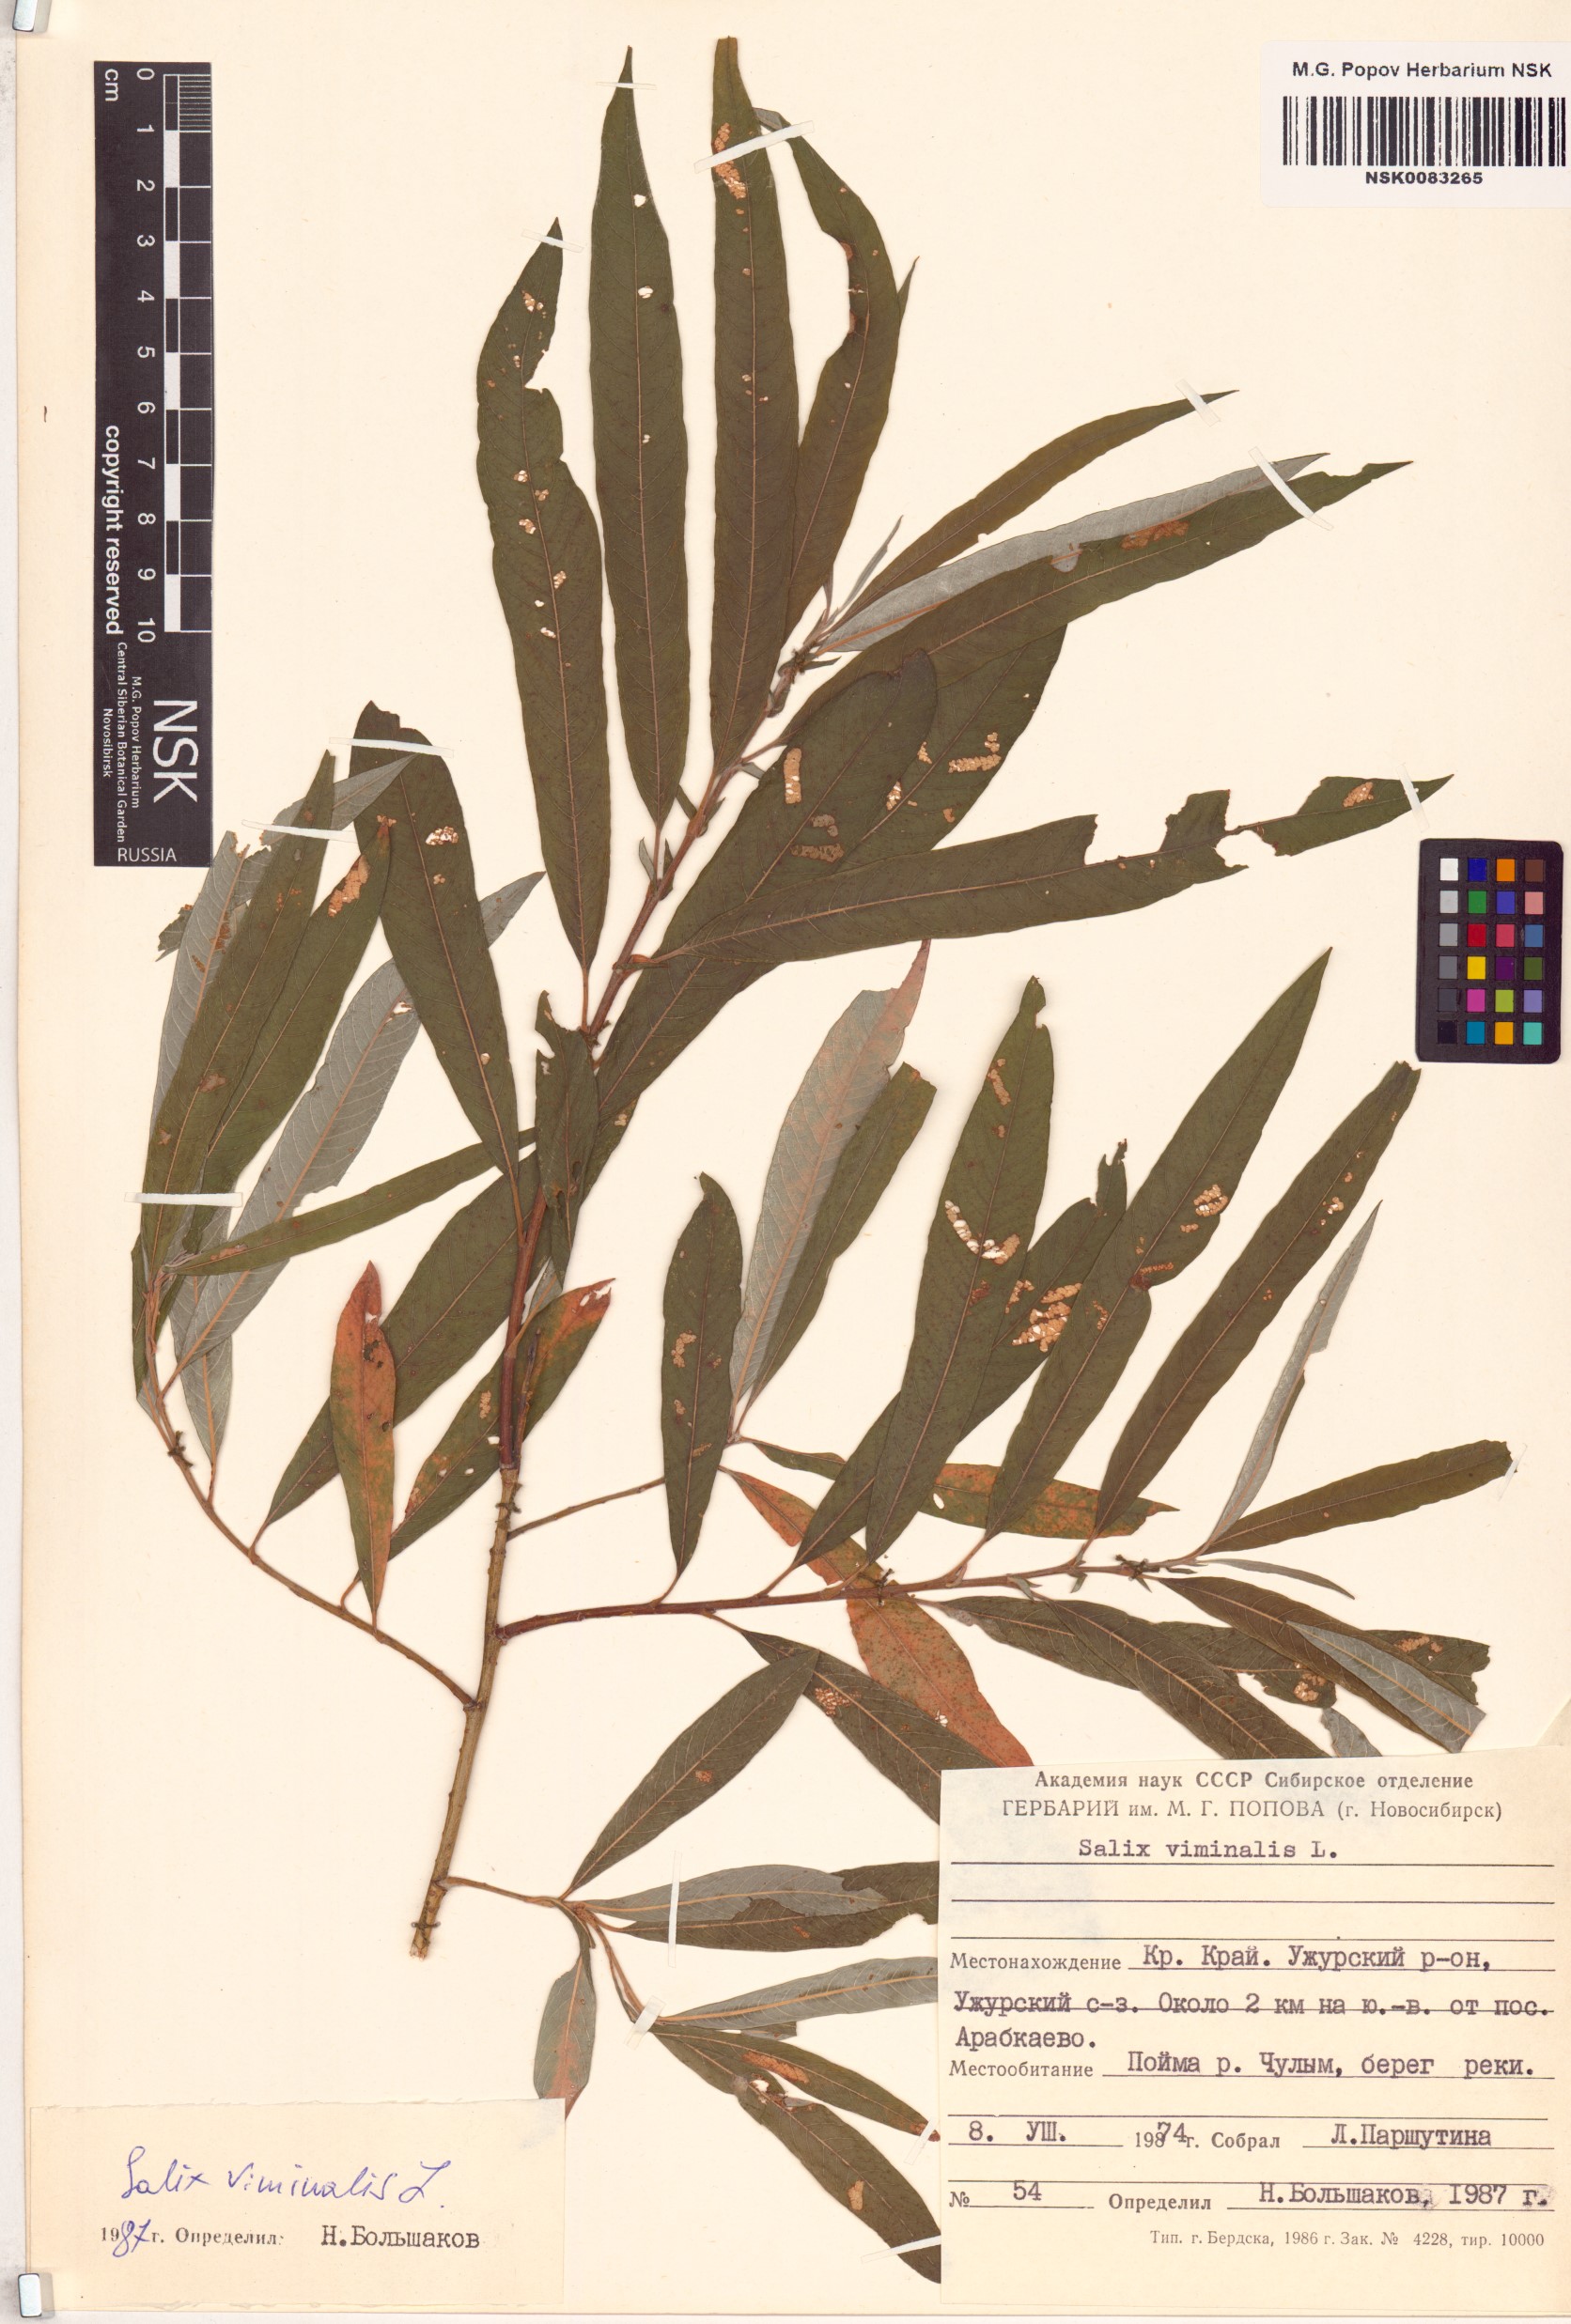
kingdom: Plantae
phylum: Tracheophyta
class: Magnoliopsida
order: Malpighiales
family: Salicaceae
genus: Salix
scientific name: Salix viminalis
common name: Osier
